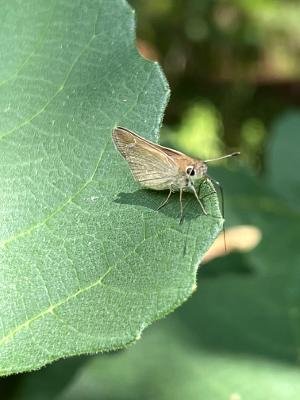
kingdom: Animalia
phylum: Arthropoda
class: Insecta
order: Lepidoptera
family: Hesperiidae
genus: Lerodea
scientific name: Lerodea eufala
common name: Eufala Skipper
